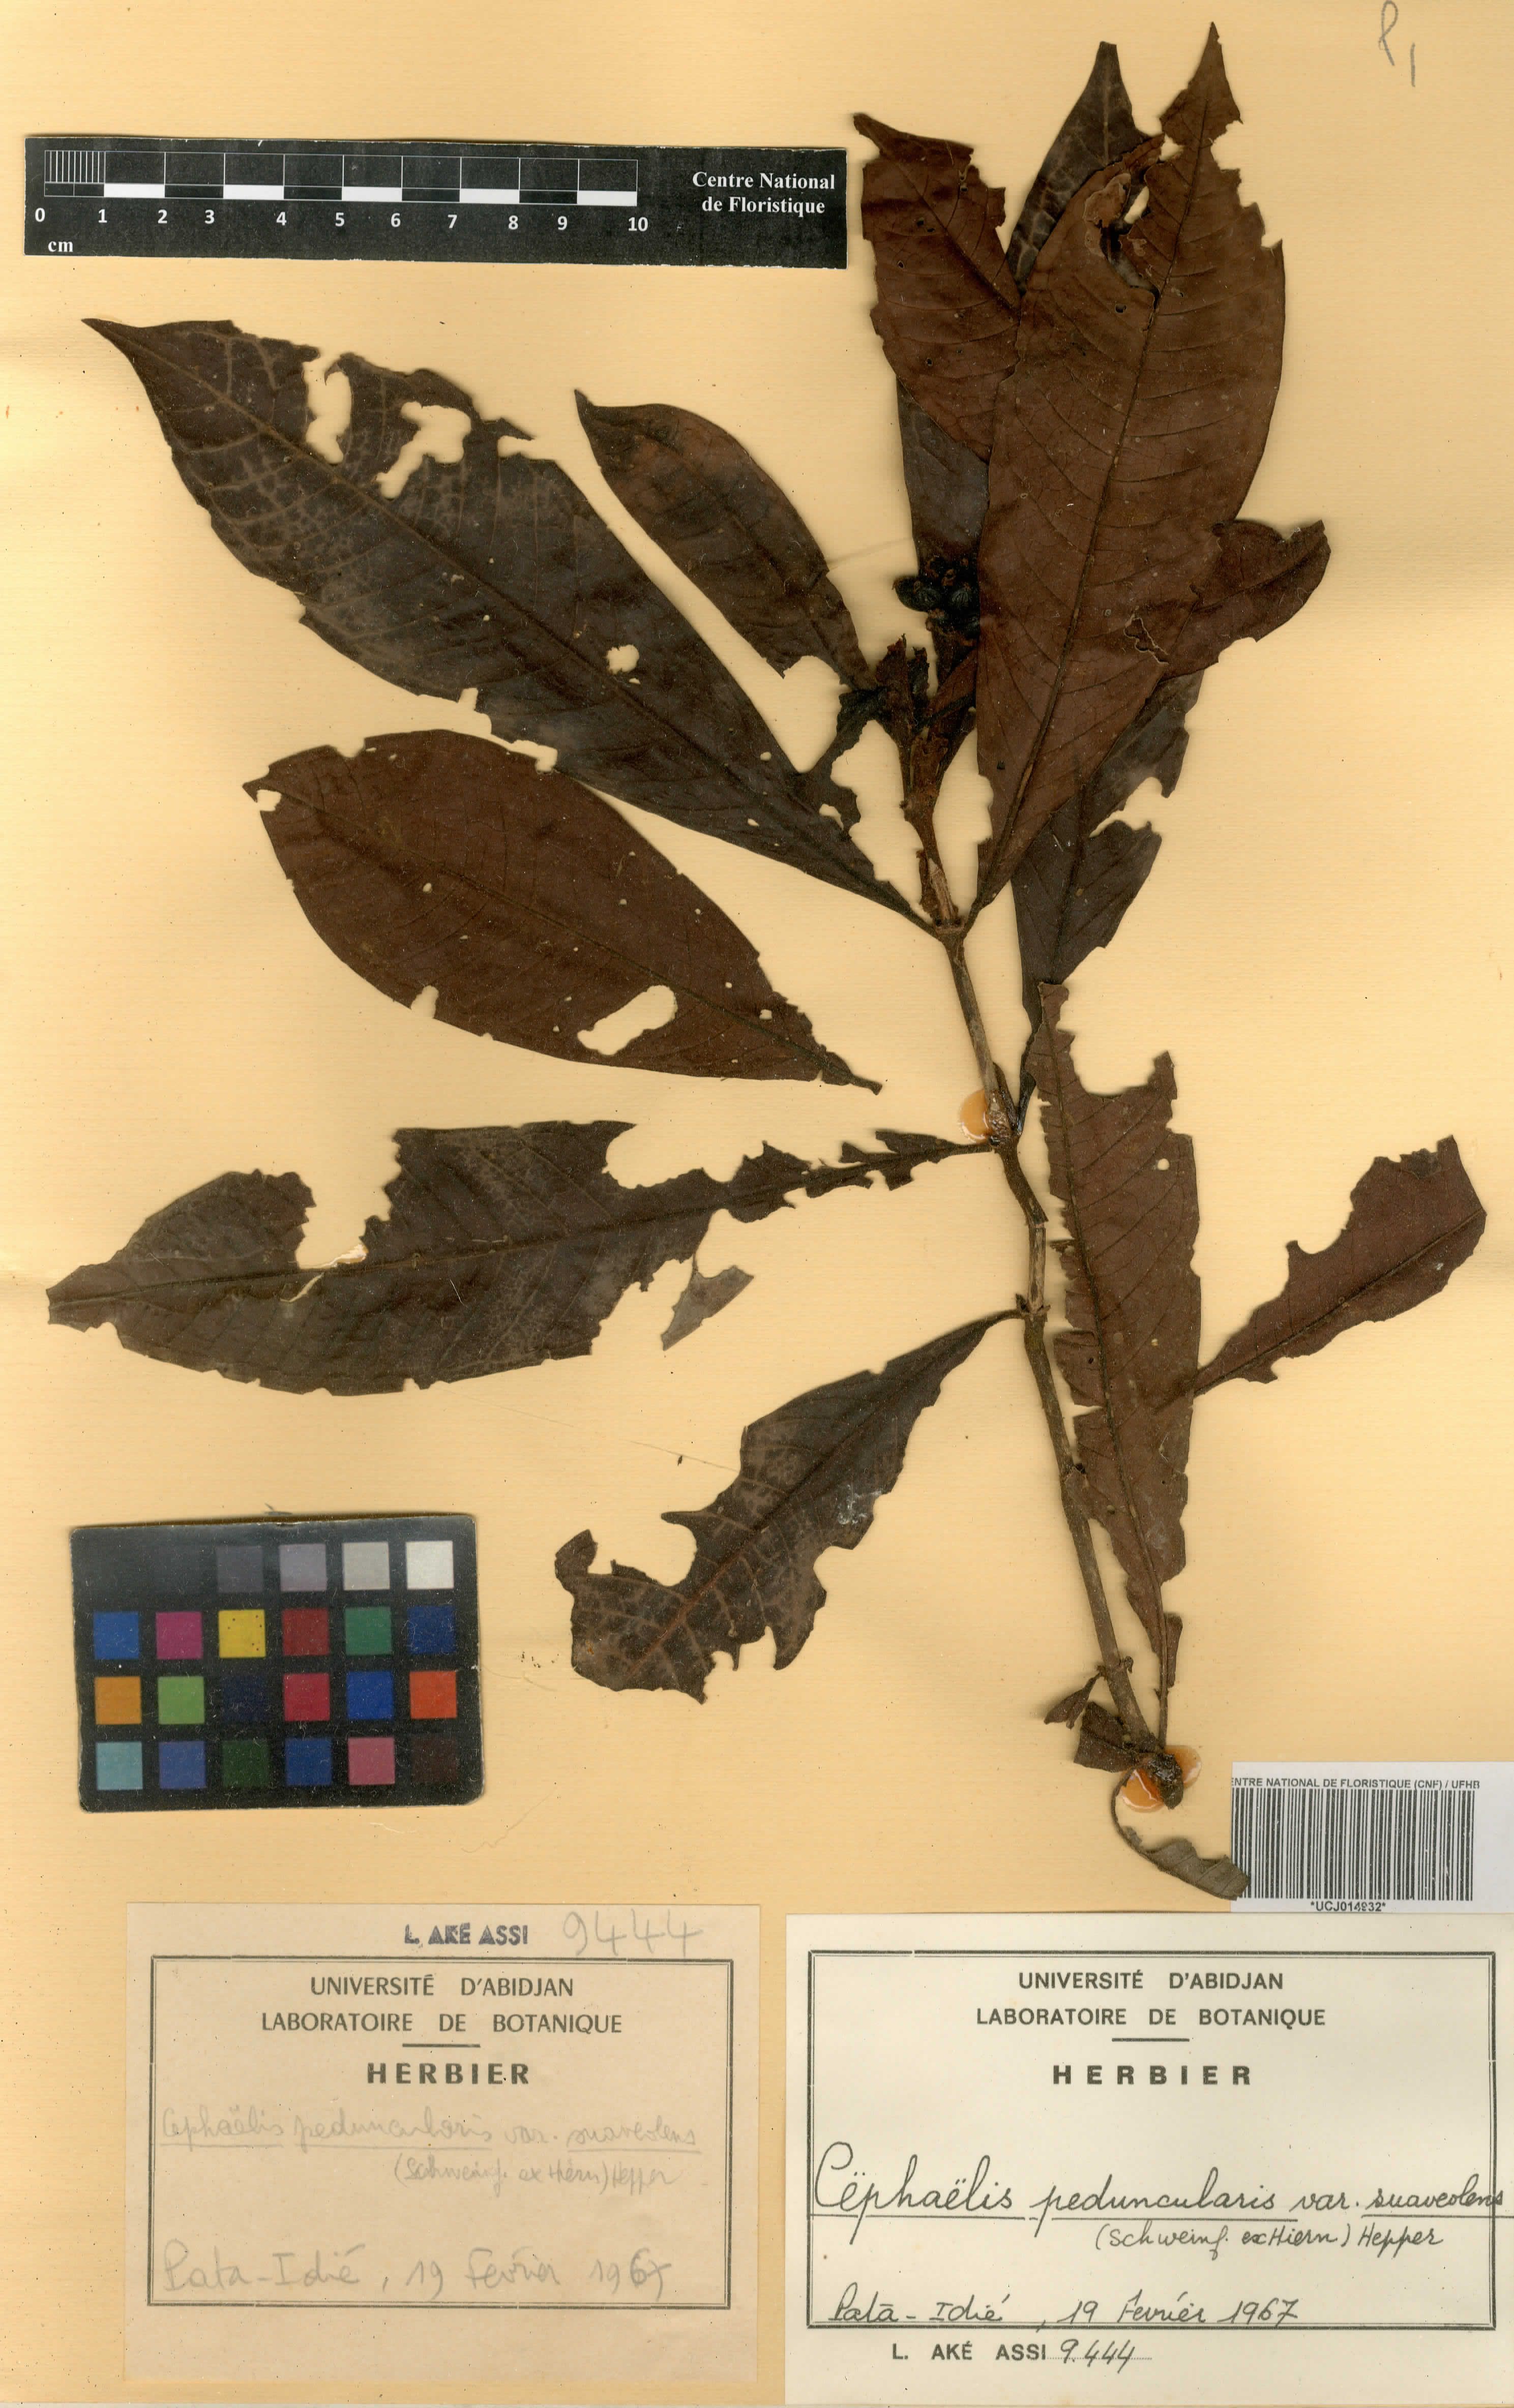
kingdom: Plantae
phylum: Tracheophyta
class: Magnoliopsida
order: Gentianales
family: Rubiaceae
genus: Psychotria
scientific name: Psychotria peduncularis
